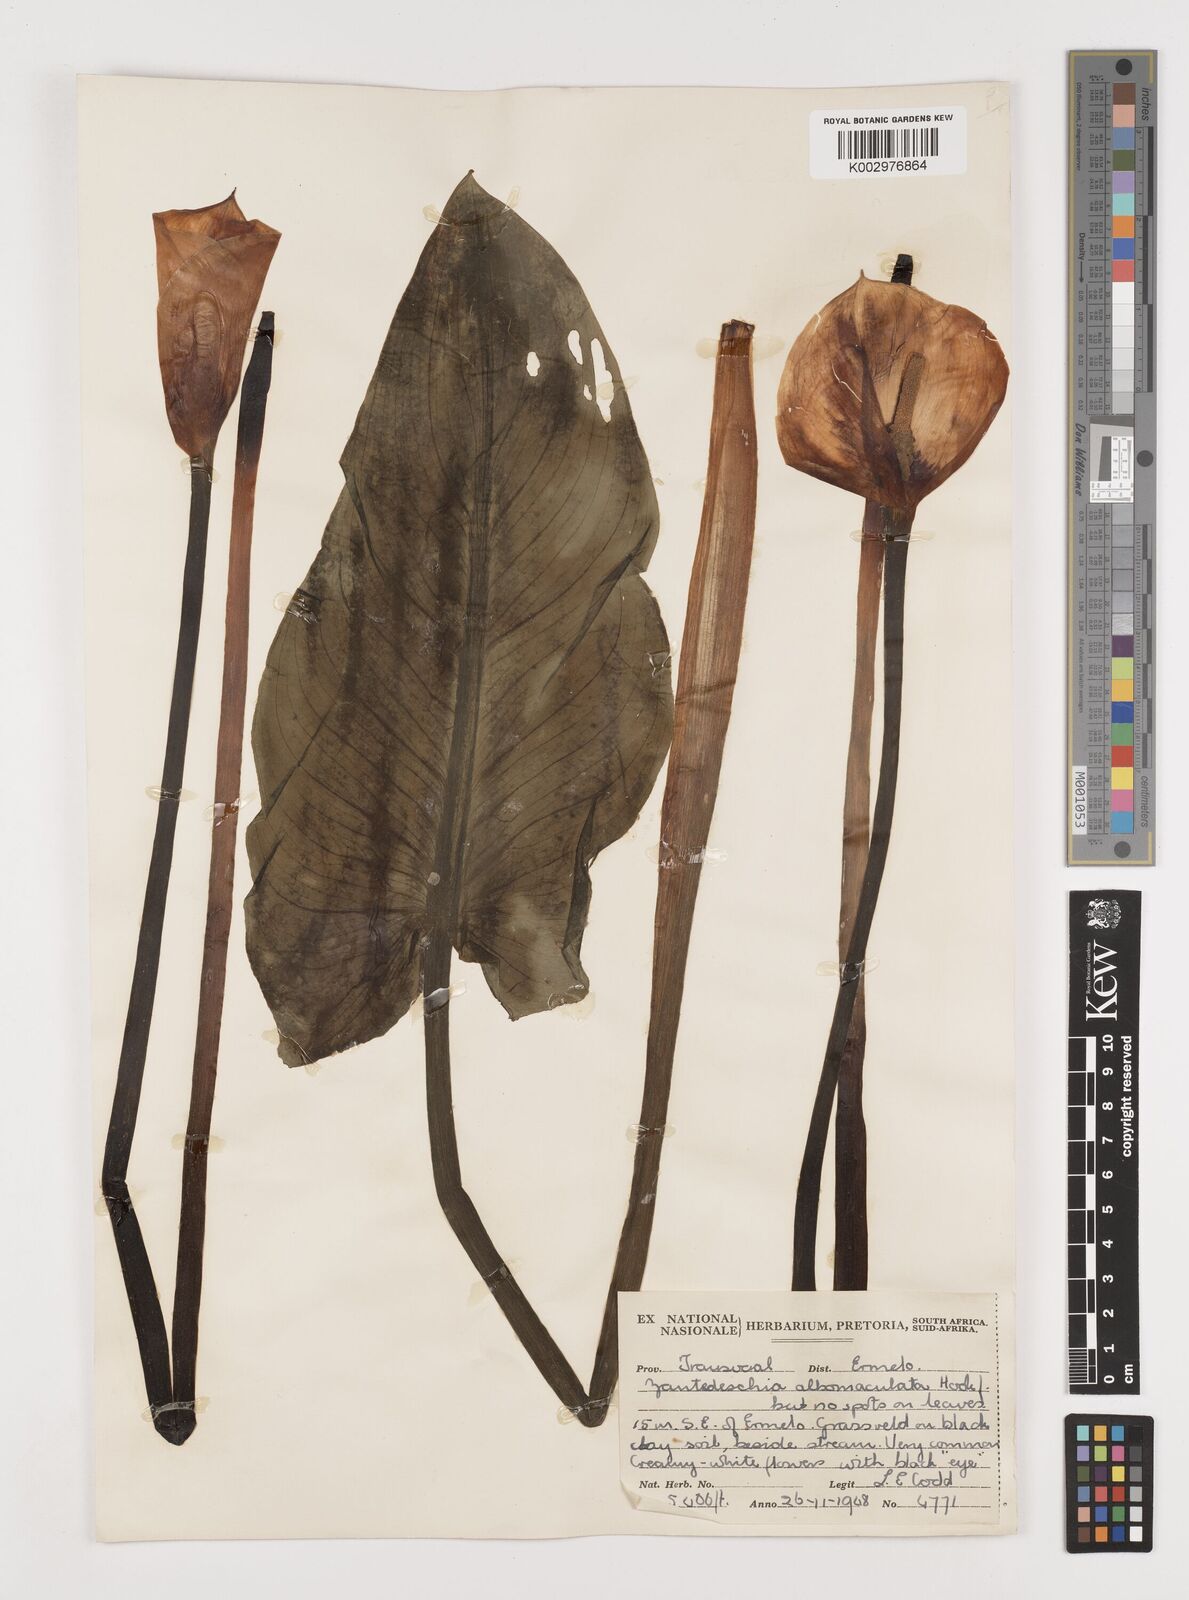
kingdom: Plantae
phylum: Tracheophyta
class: Liliopsida
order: Alismatales
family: Araceae
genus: Zantedeschia
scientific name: Zantedeschia albomaculata
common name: Spotted calla lily
